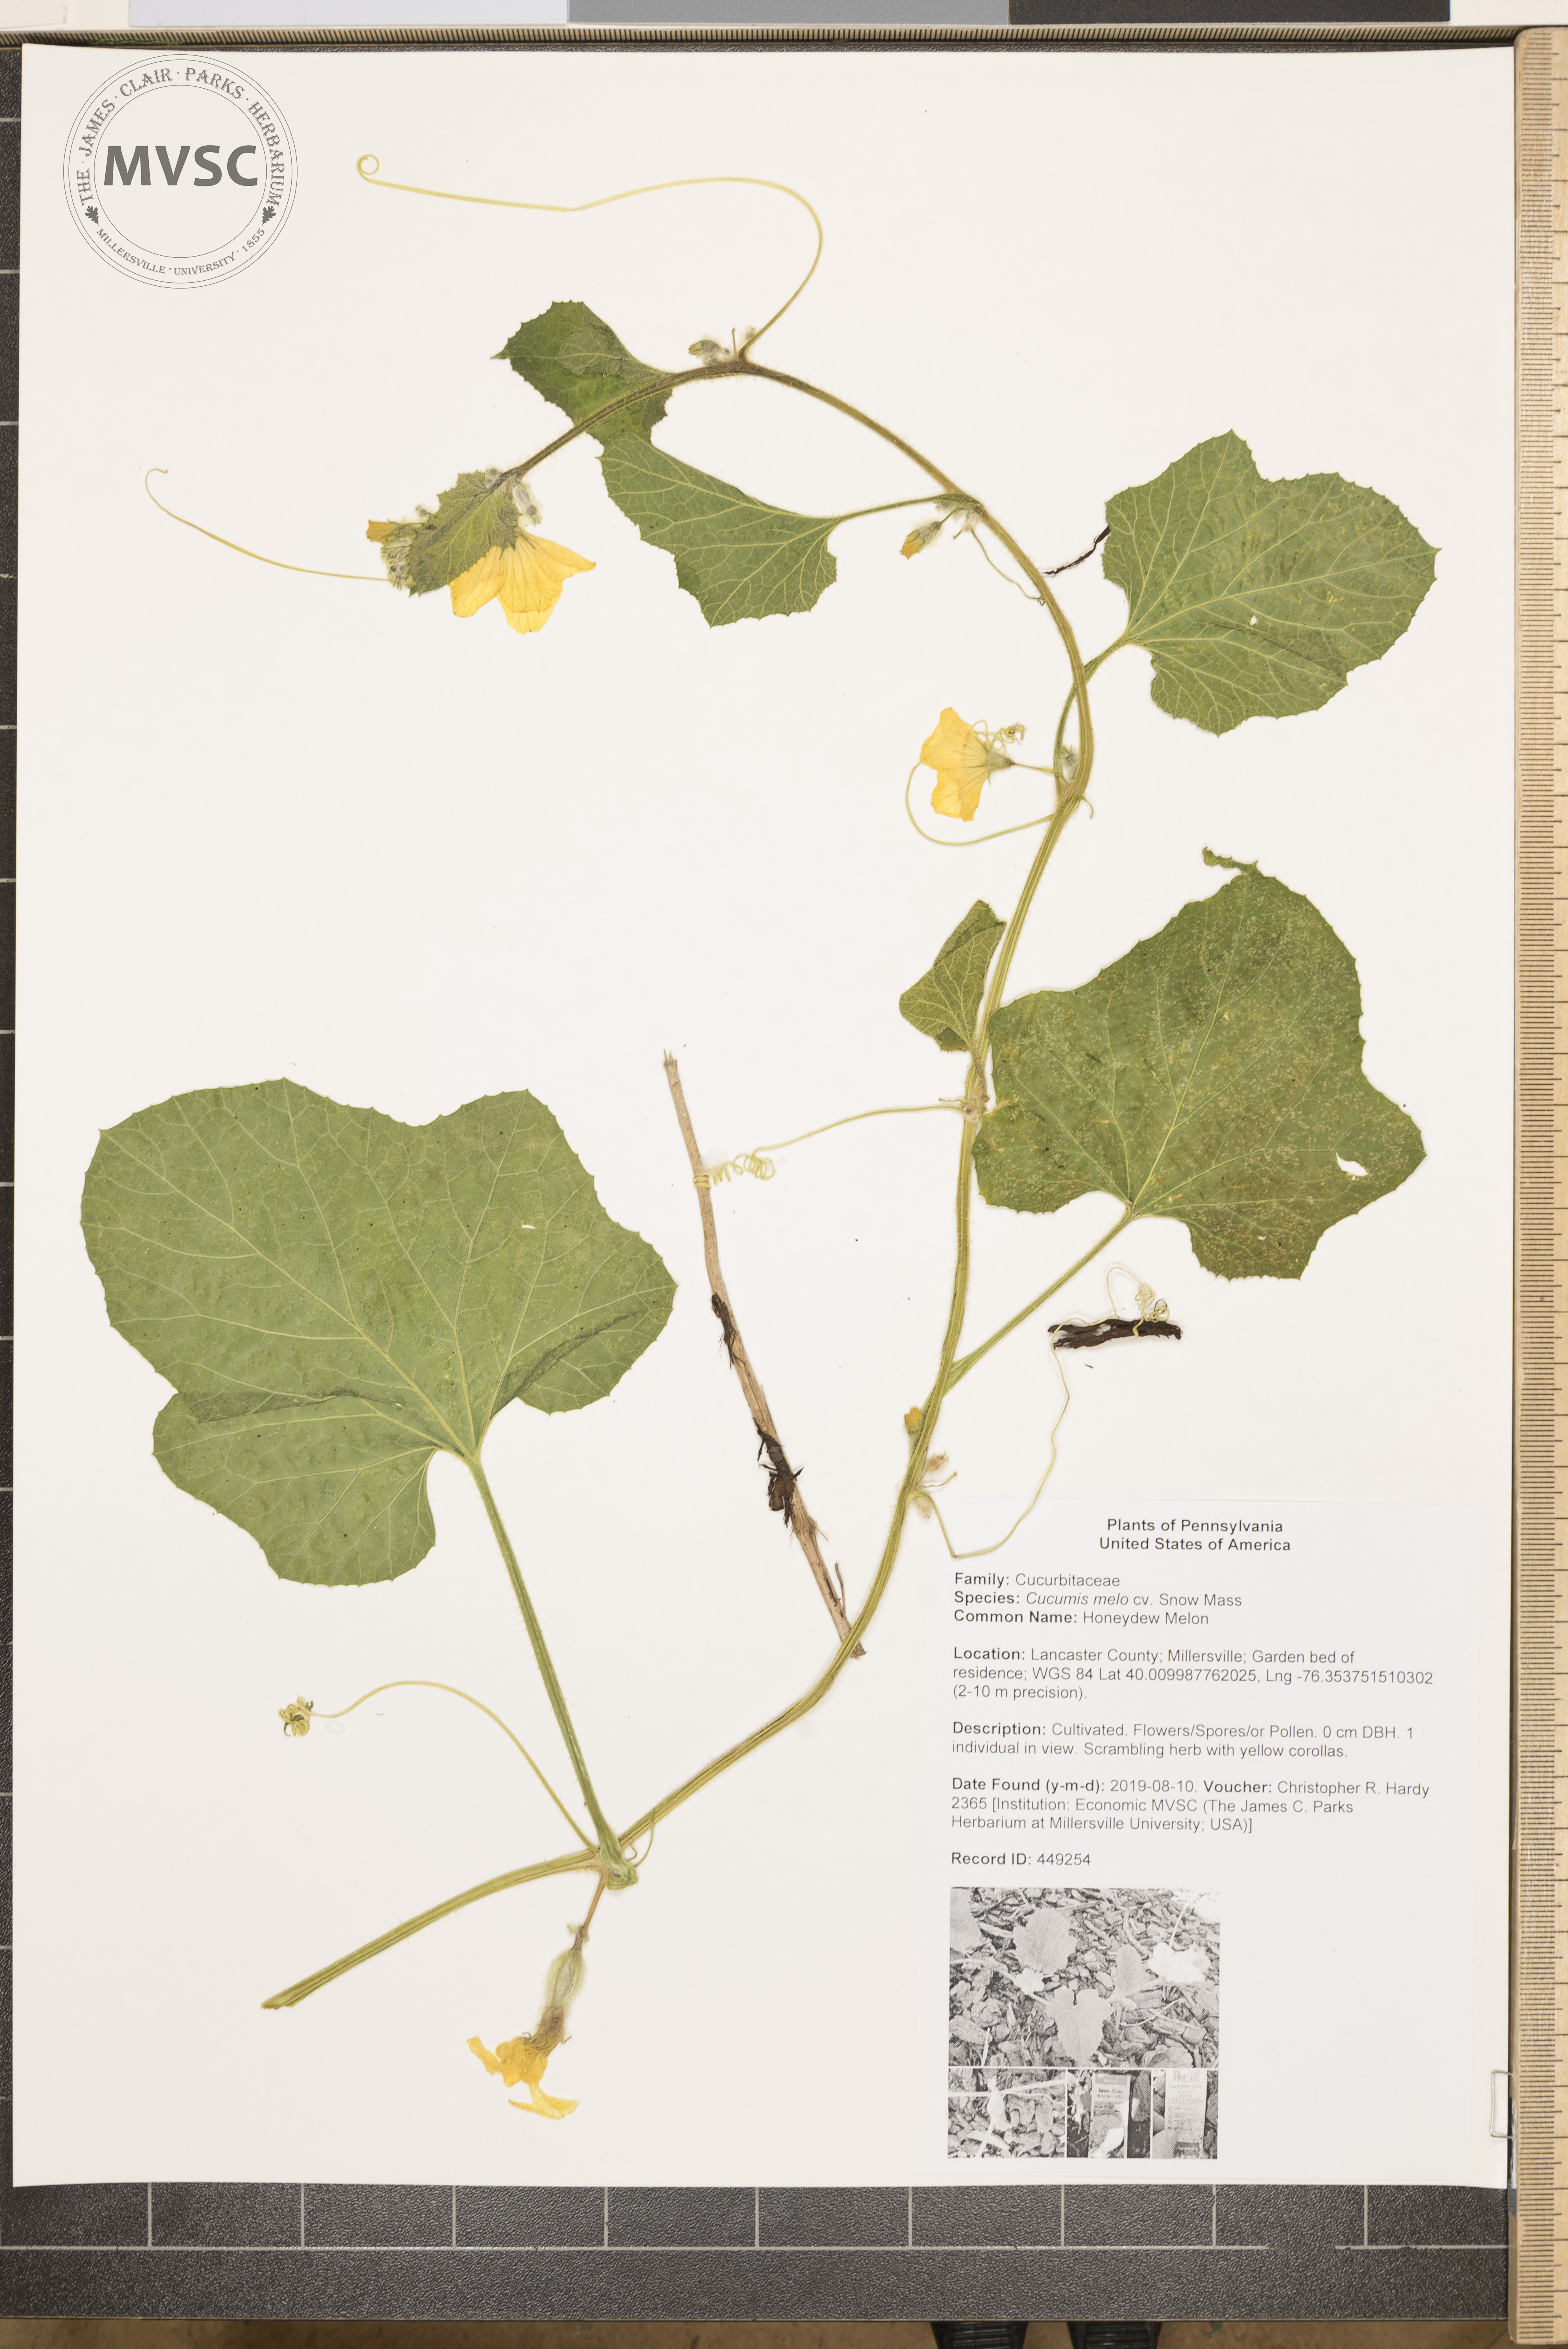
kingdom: Plantae
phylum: Tracheophyta
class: Magnoliopsida
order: Cucurbitales
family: Cucurbitaceae
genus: Cucumis
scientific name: Cucumis melo
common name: Honeydew Melon
